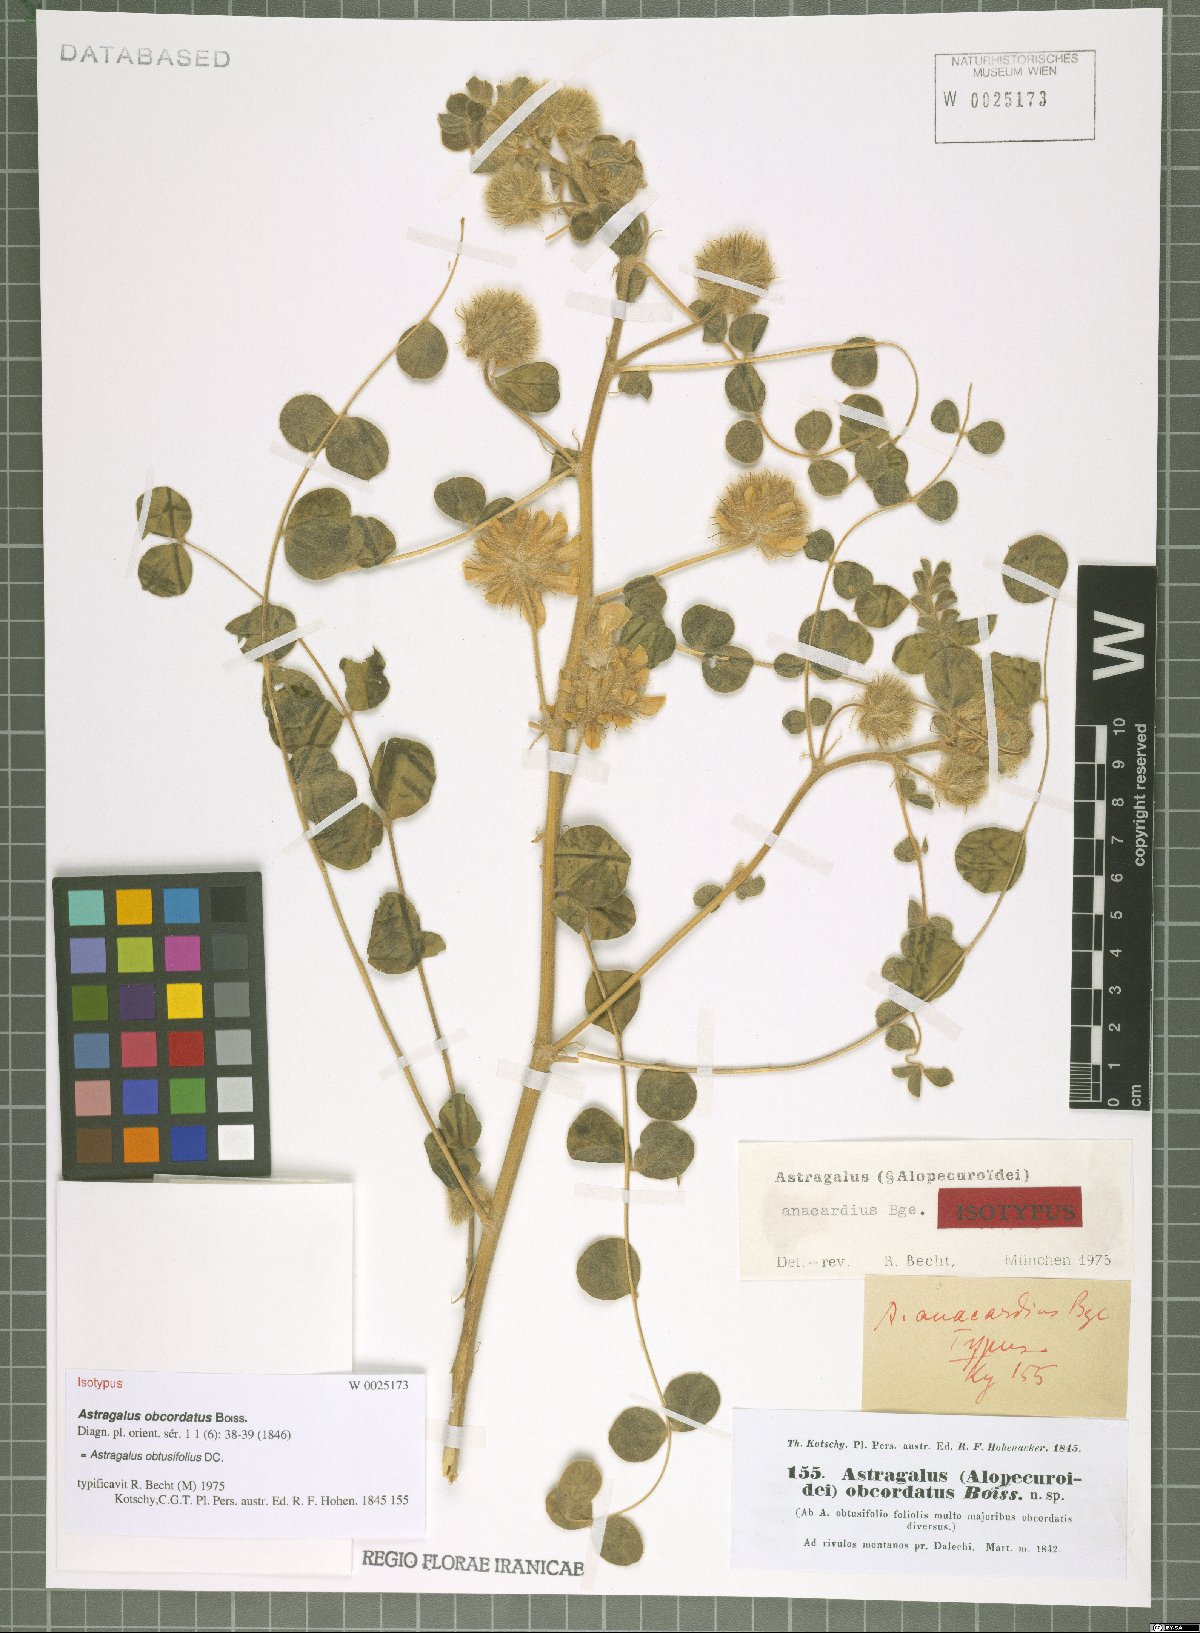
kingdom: Plantae
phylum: Tracheophyta
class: Magnoliopsida
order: Fabales
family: Fabaceae
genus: Astragalus
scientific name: Astragalus obtusifolius
